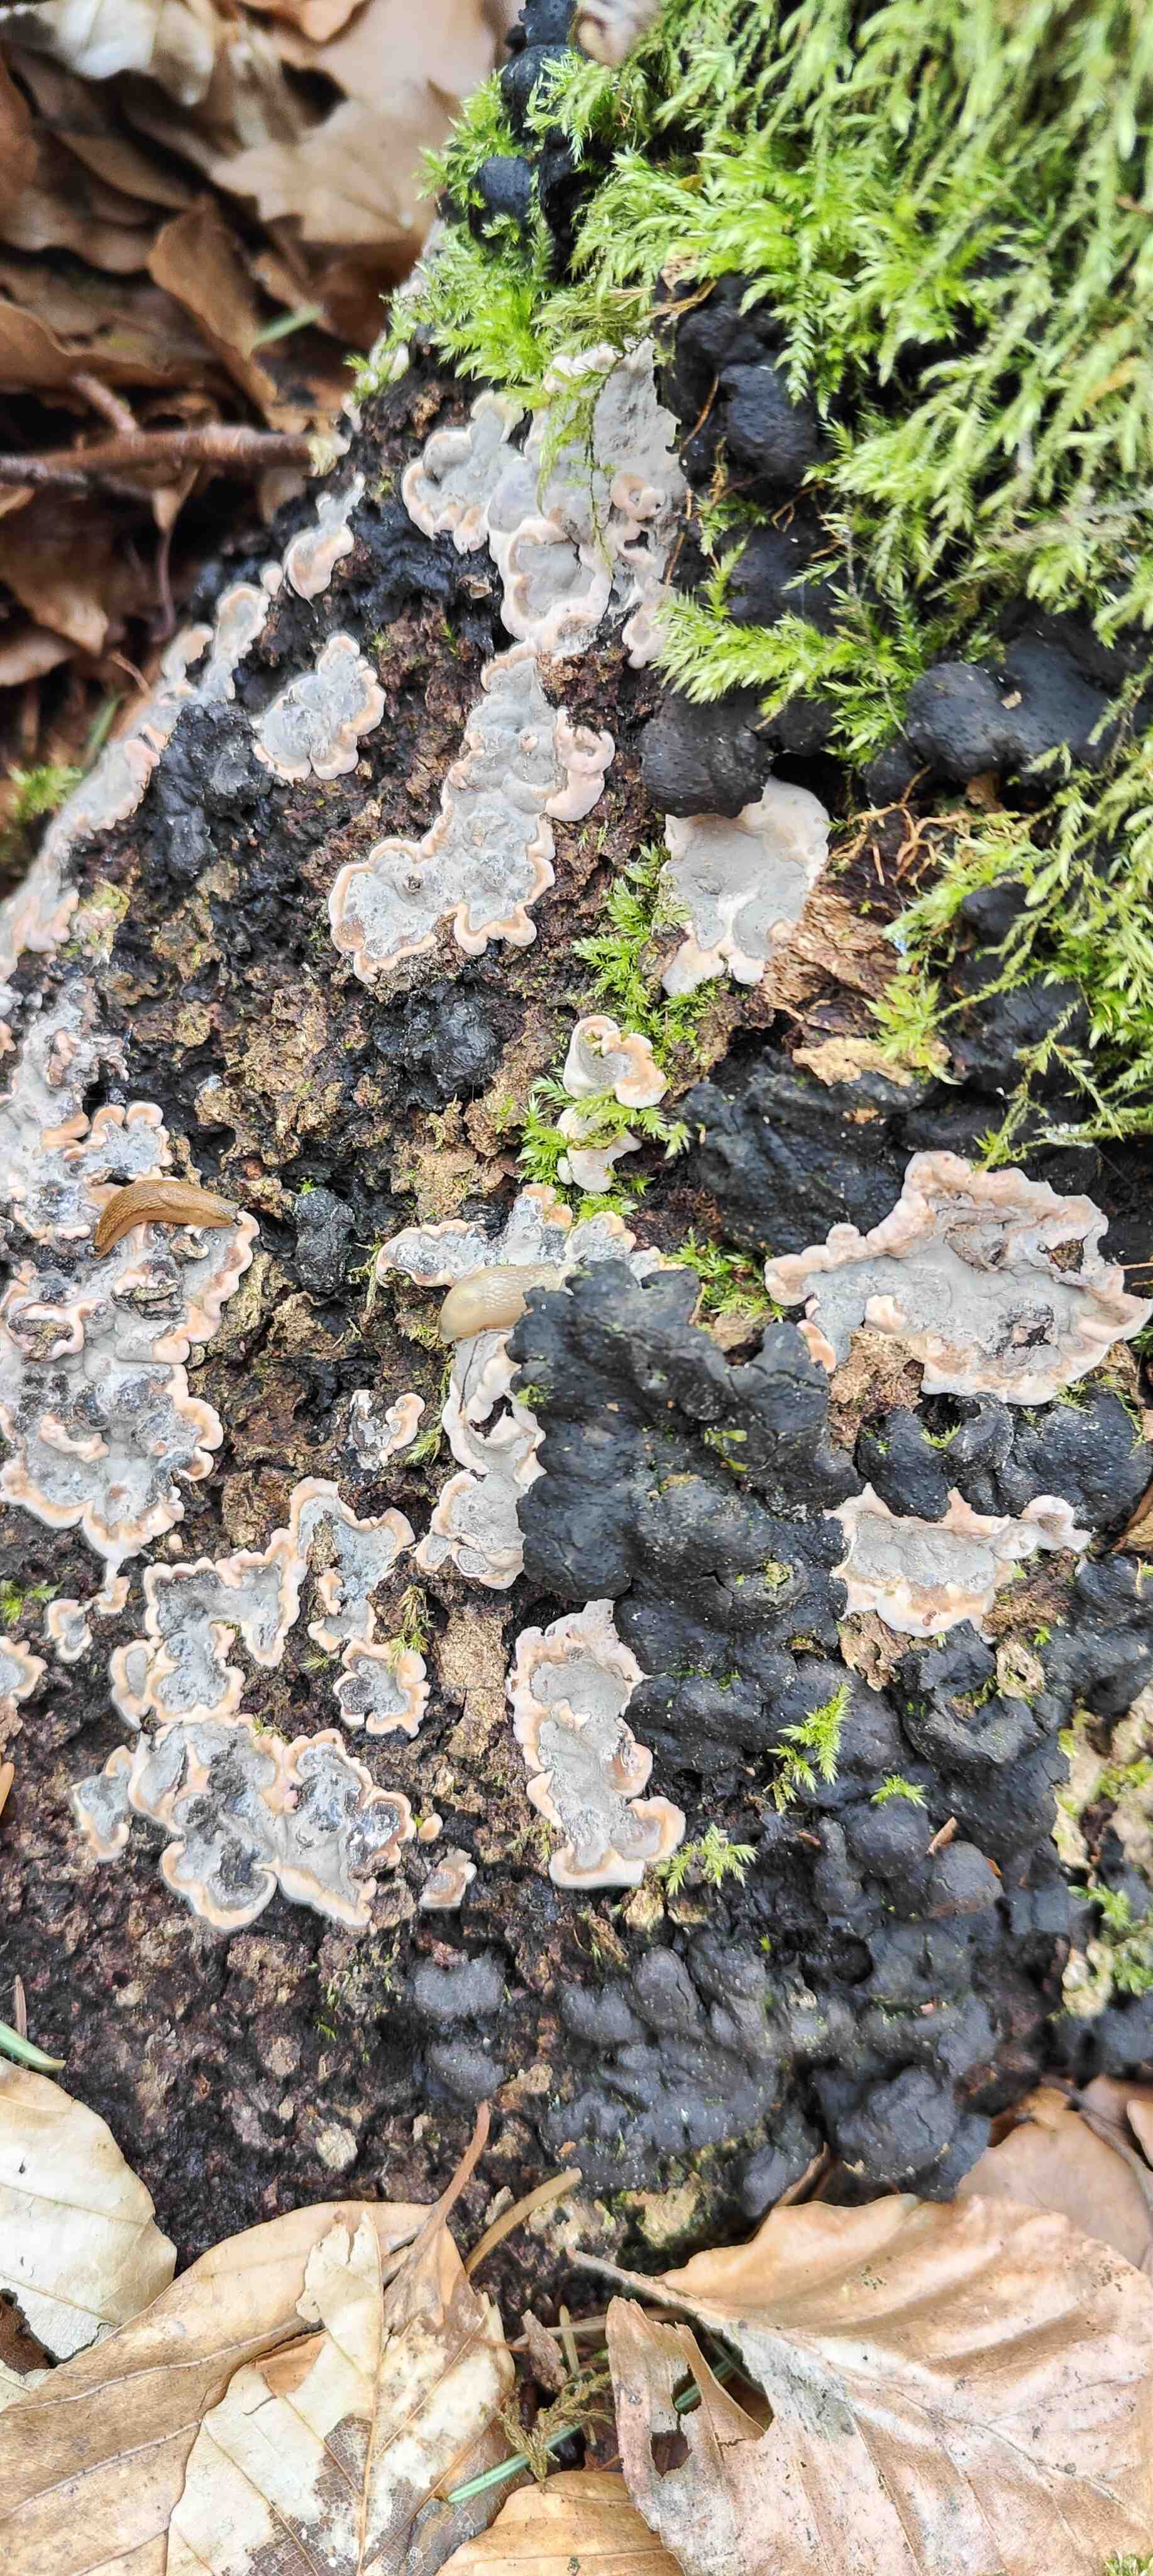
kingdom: Fungi
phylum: Ascomycota
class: Sordariomycetes
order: Xylariales
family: Xylariaceae
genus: Kretzschmaria
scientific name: Kretzschmaria deusta
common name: stor kulsvamp
